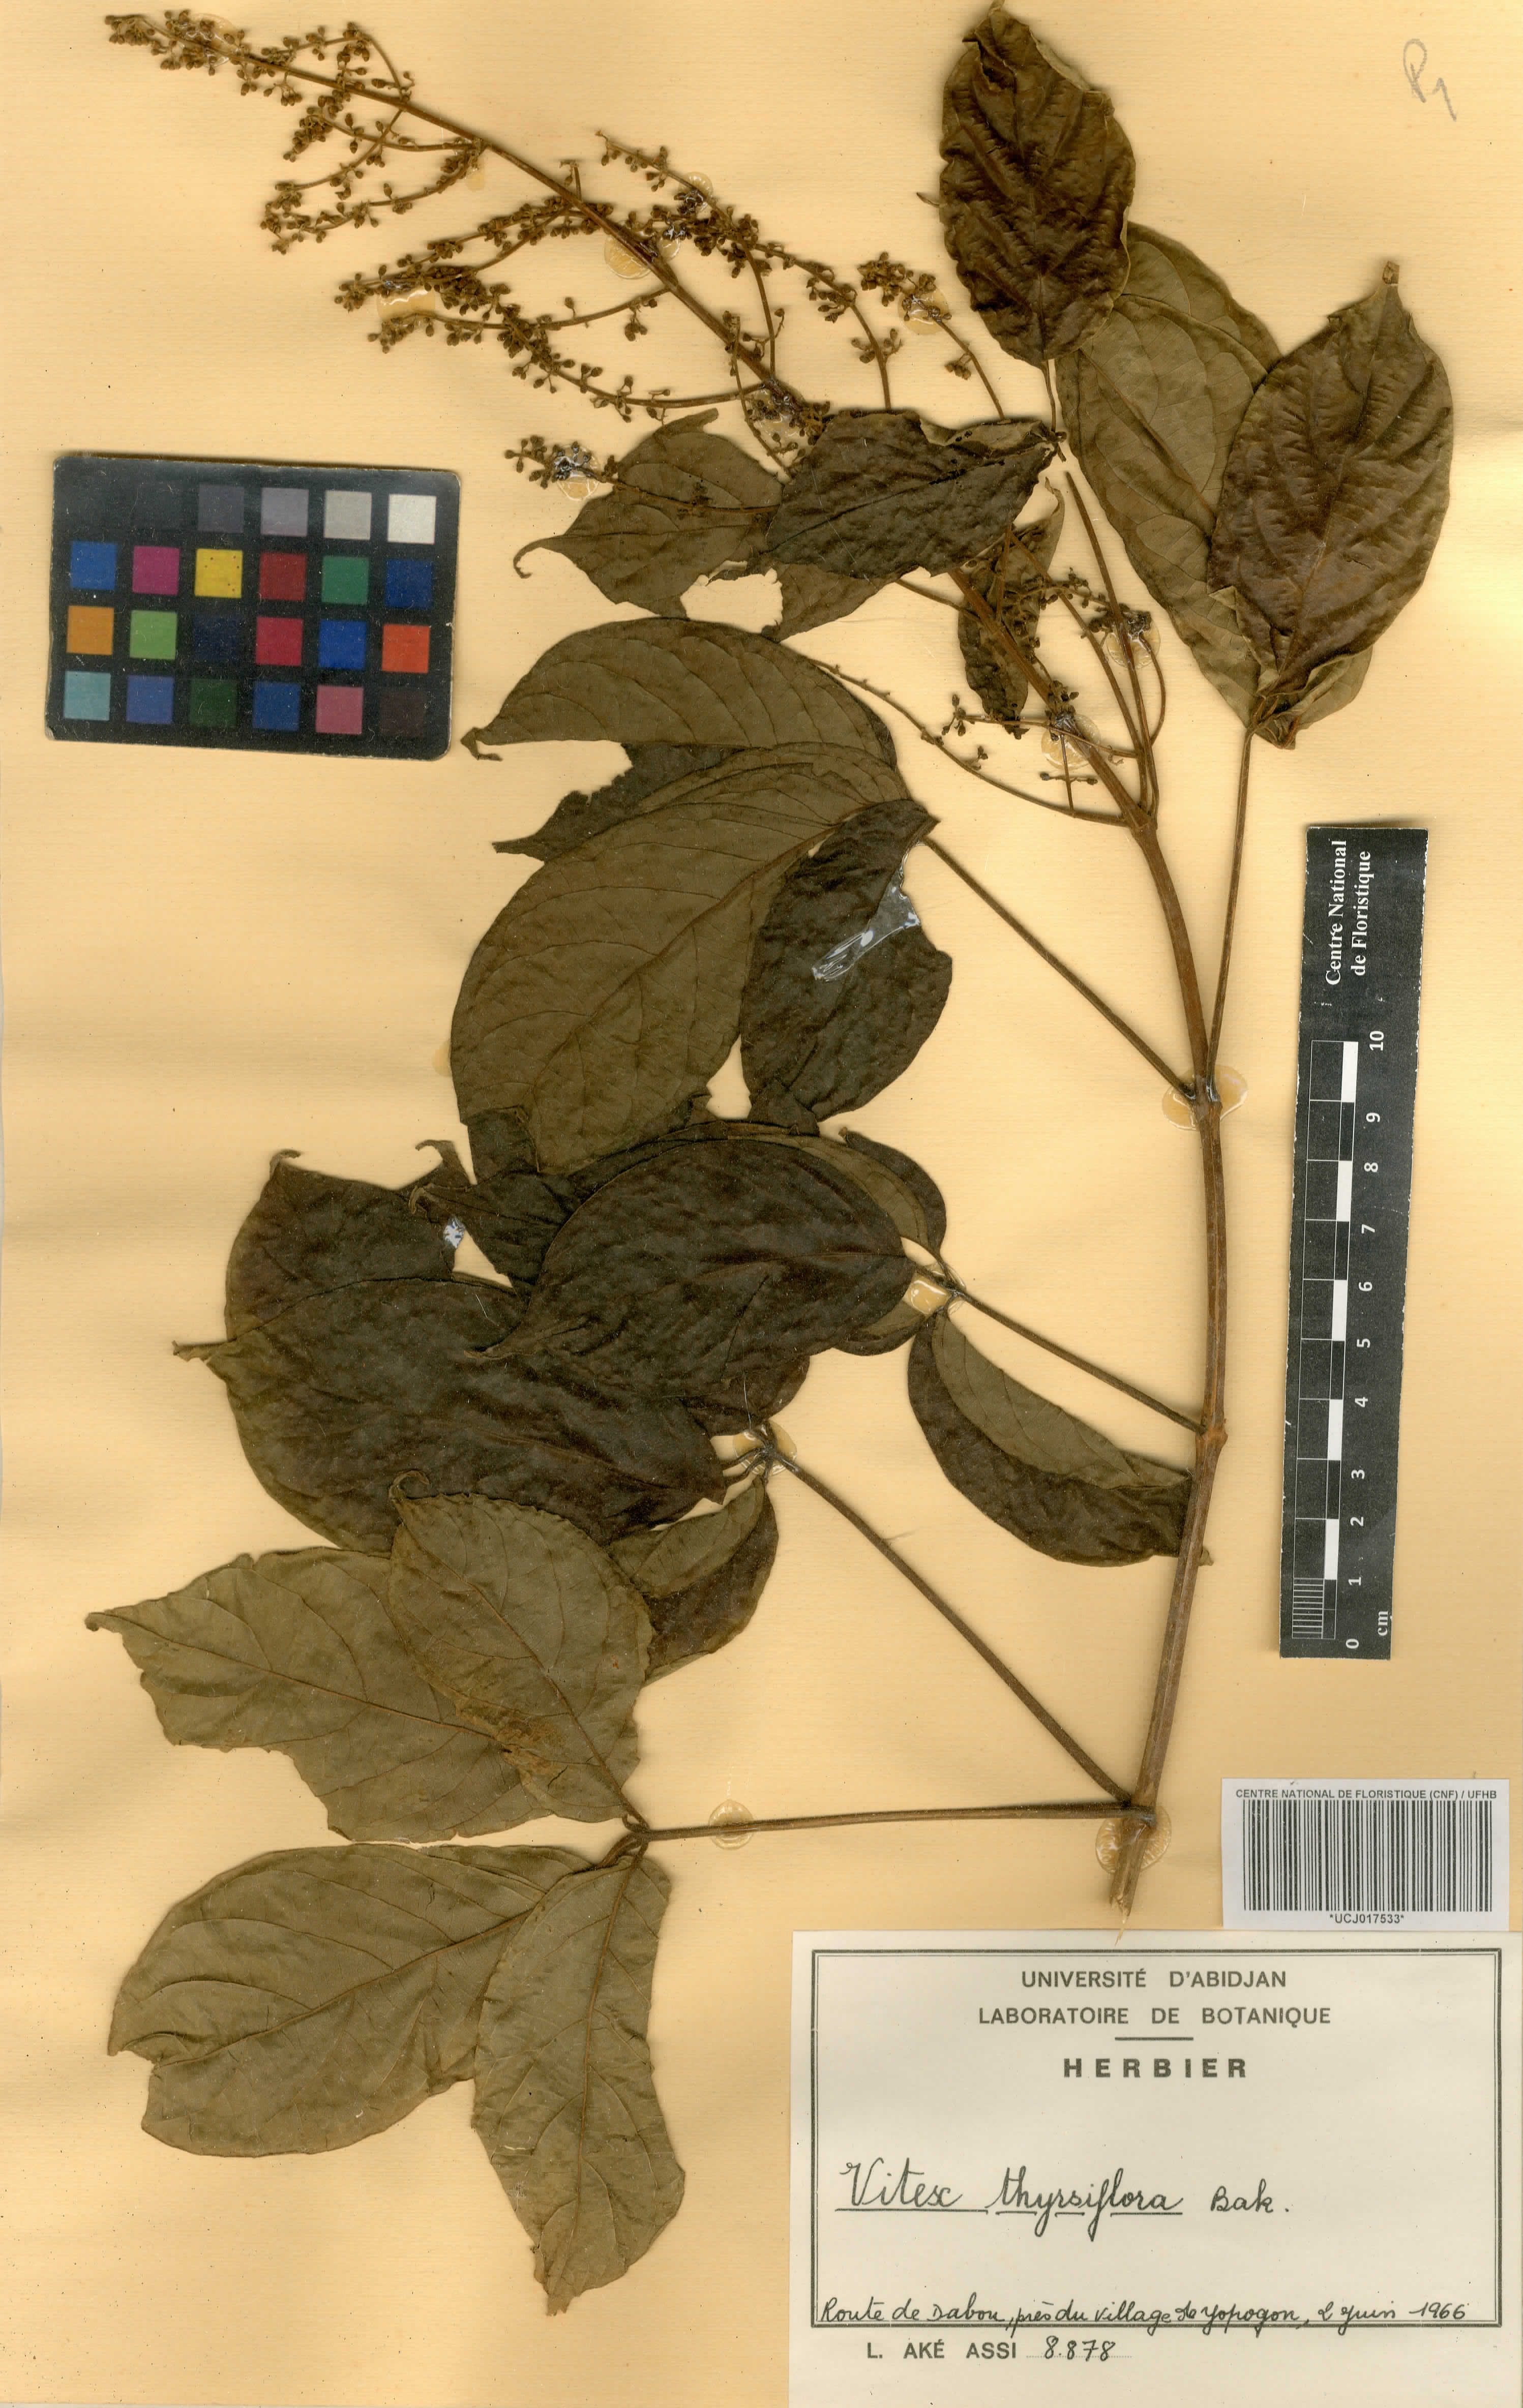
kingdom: Plantae
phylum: Tracheophyta
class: Magnoliopsida
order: Lamiales
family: Lamiaceae
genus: Vitex
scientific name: Vitex thyrsiflora
